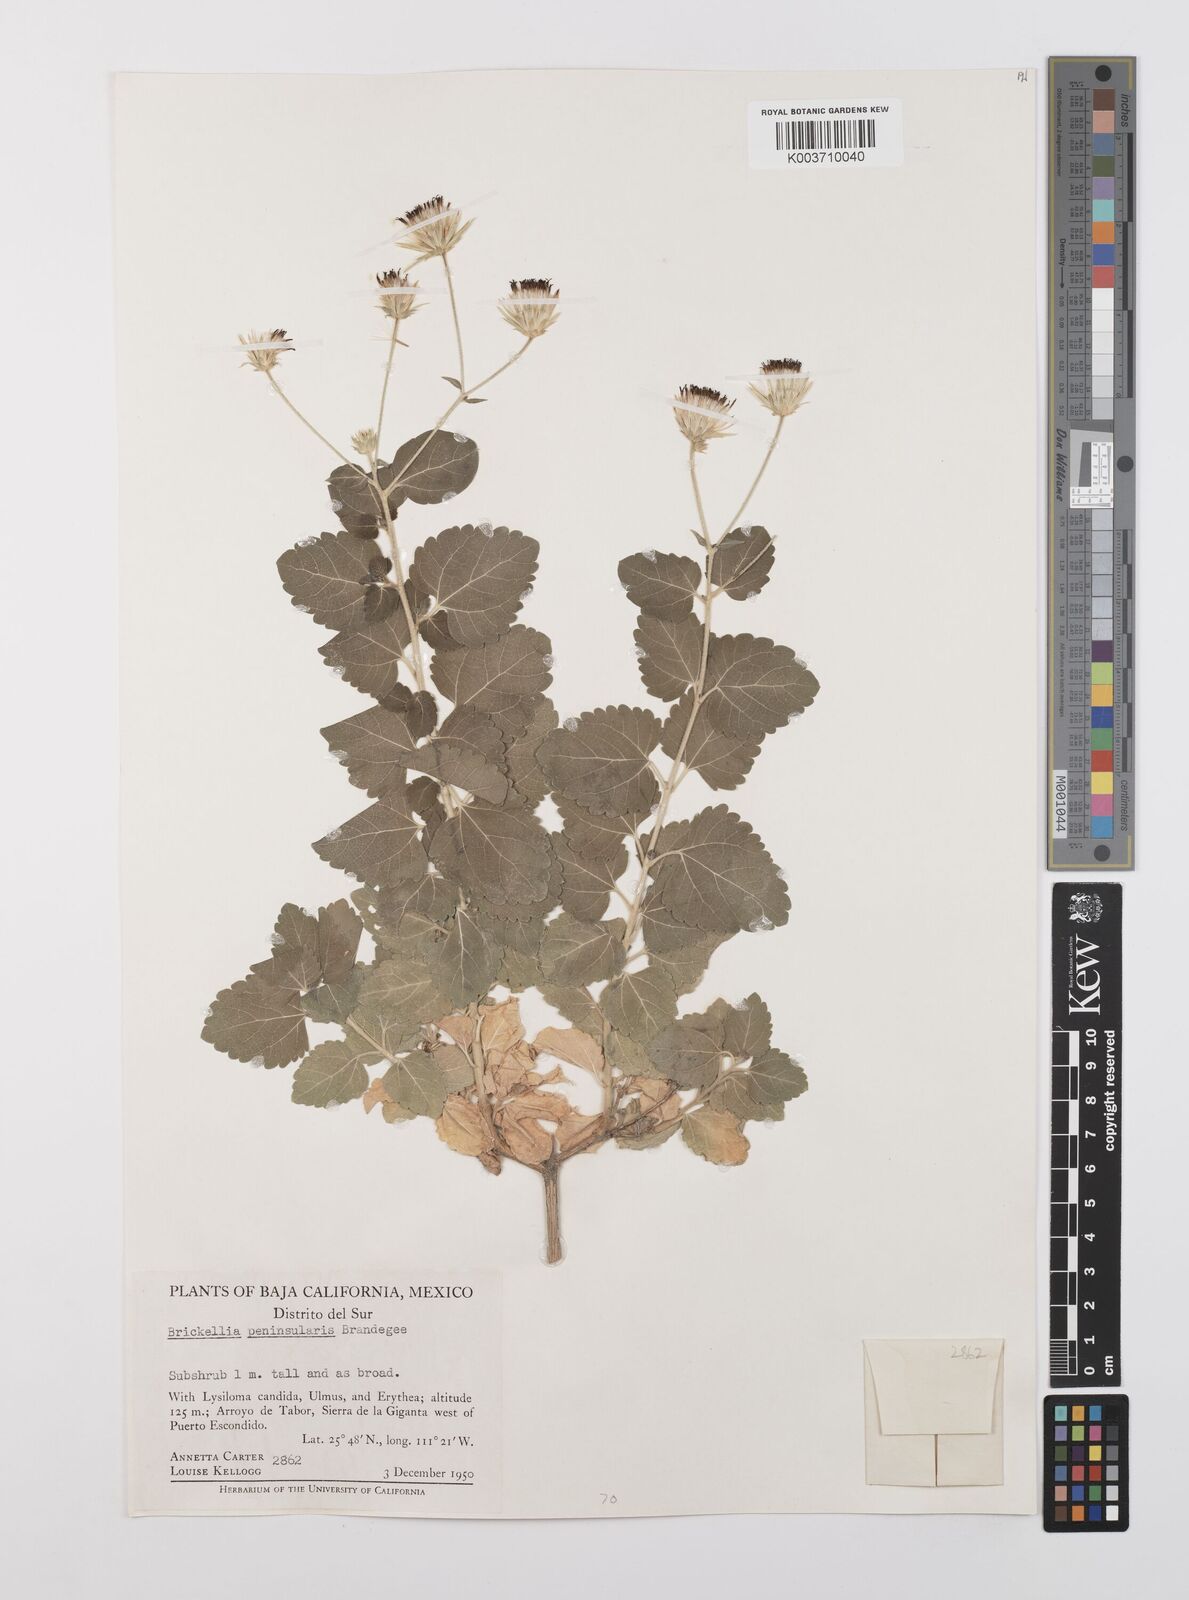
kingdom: Plantae
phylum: Tracheophyta
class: Magnoliopsida
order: Asterales
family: Asteraceae
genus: Brickellia
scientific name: Brickellia peninsularis
